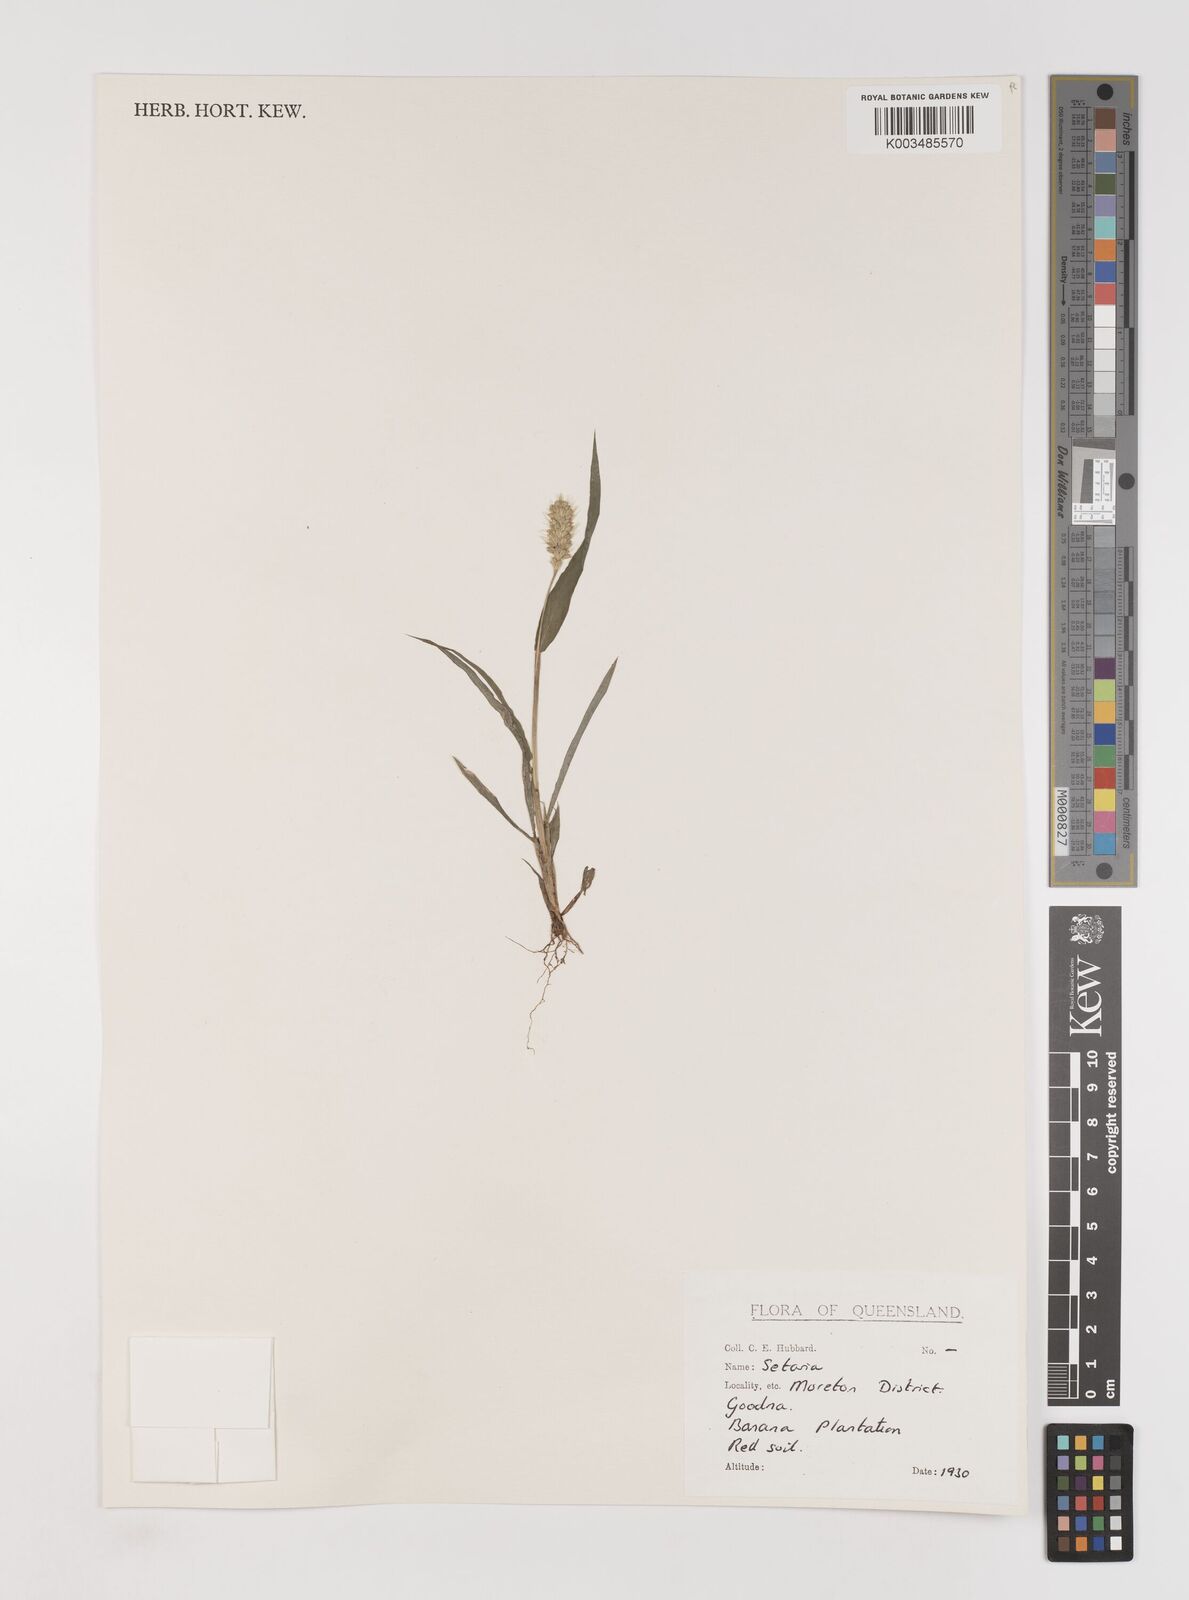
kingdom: Plantae
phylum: Tracheophyta
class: Liliopsida
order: Poales
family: Poaceae
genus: Setaria
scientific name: Setaria
